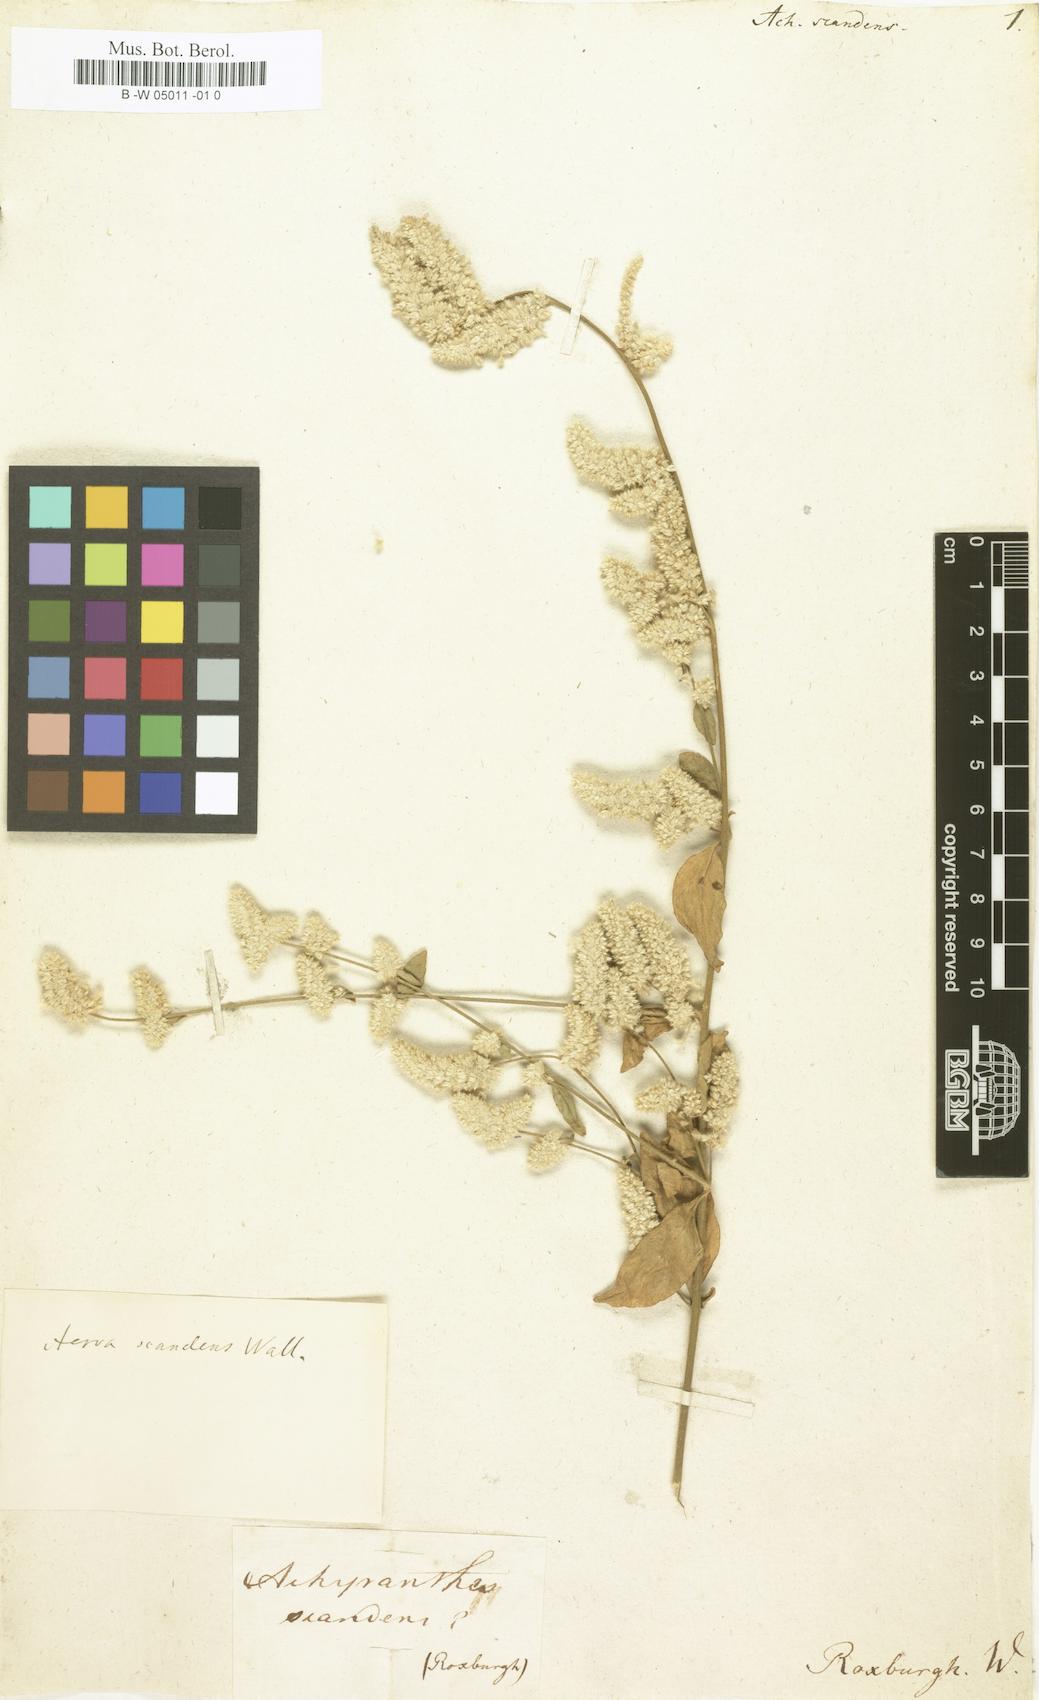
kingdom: Plantae
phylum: Tracheophyta
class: Magnoliopsida
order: Caryophyllales
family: Amaranthaceae
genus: Ouret
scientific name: Ouret sanguinolenta
